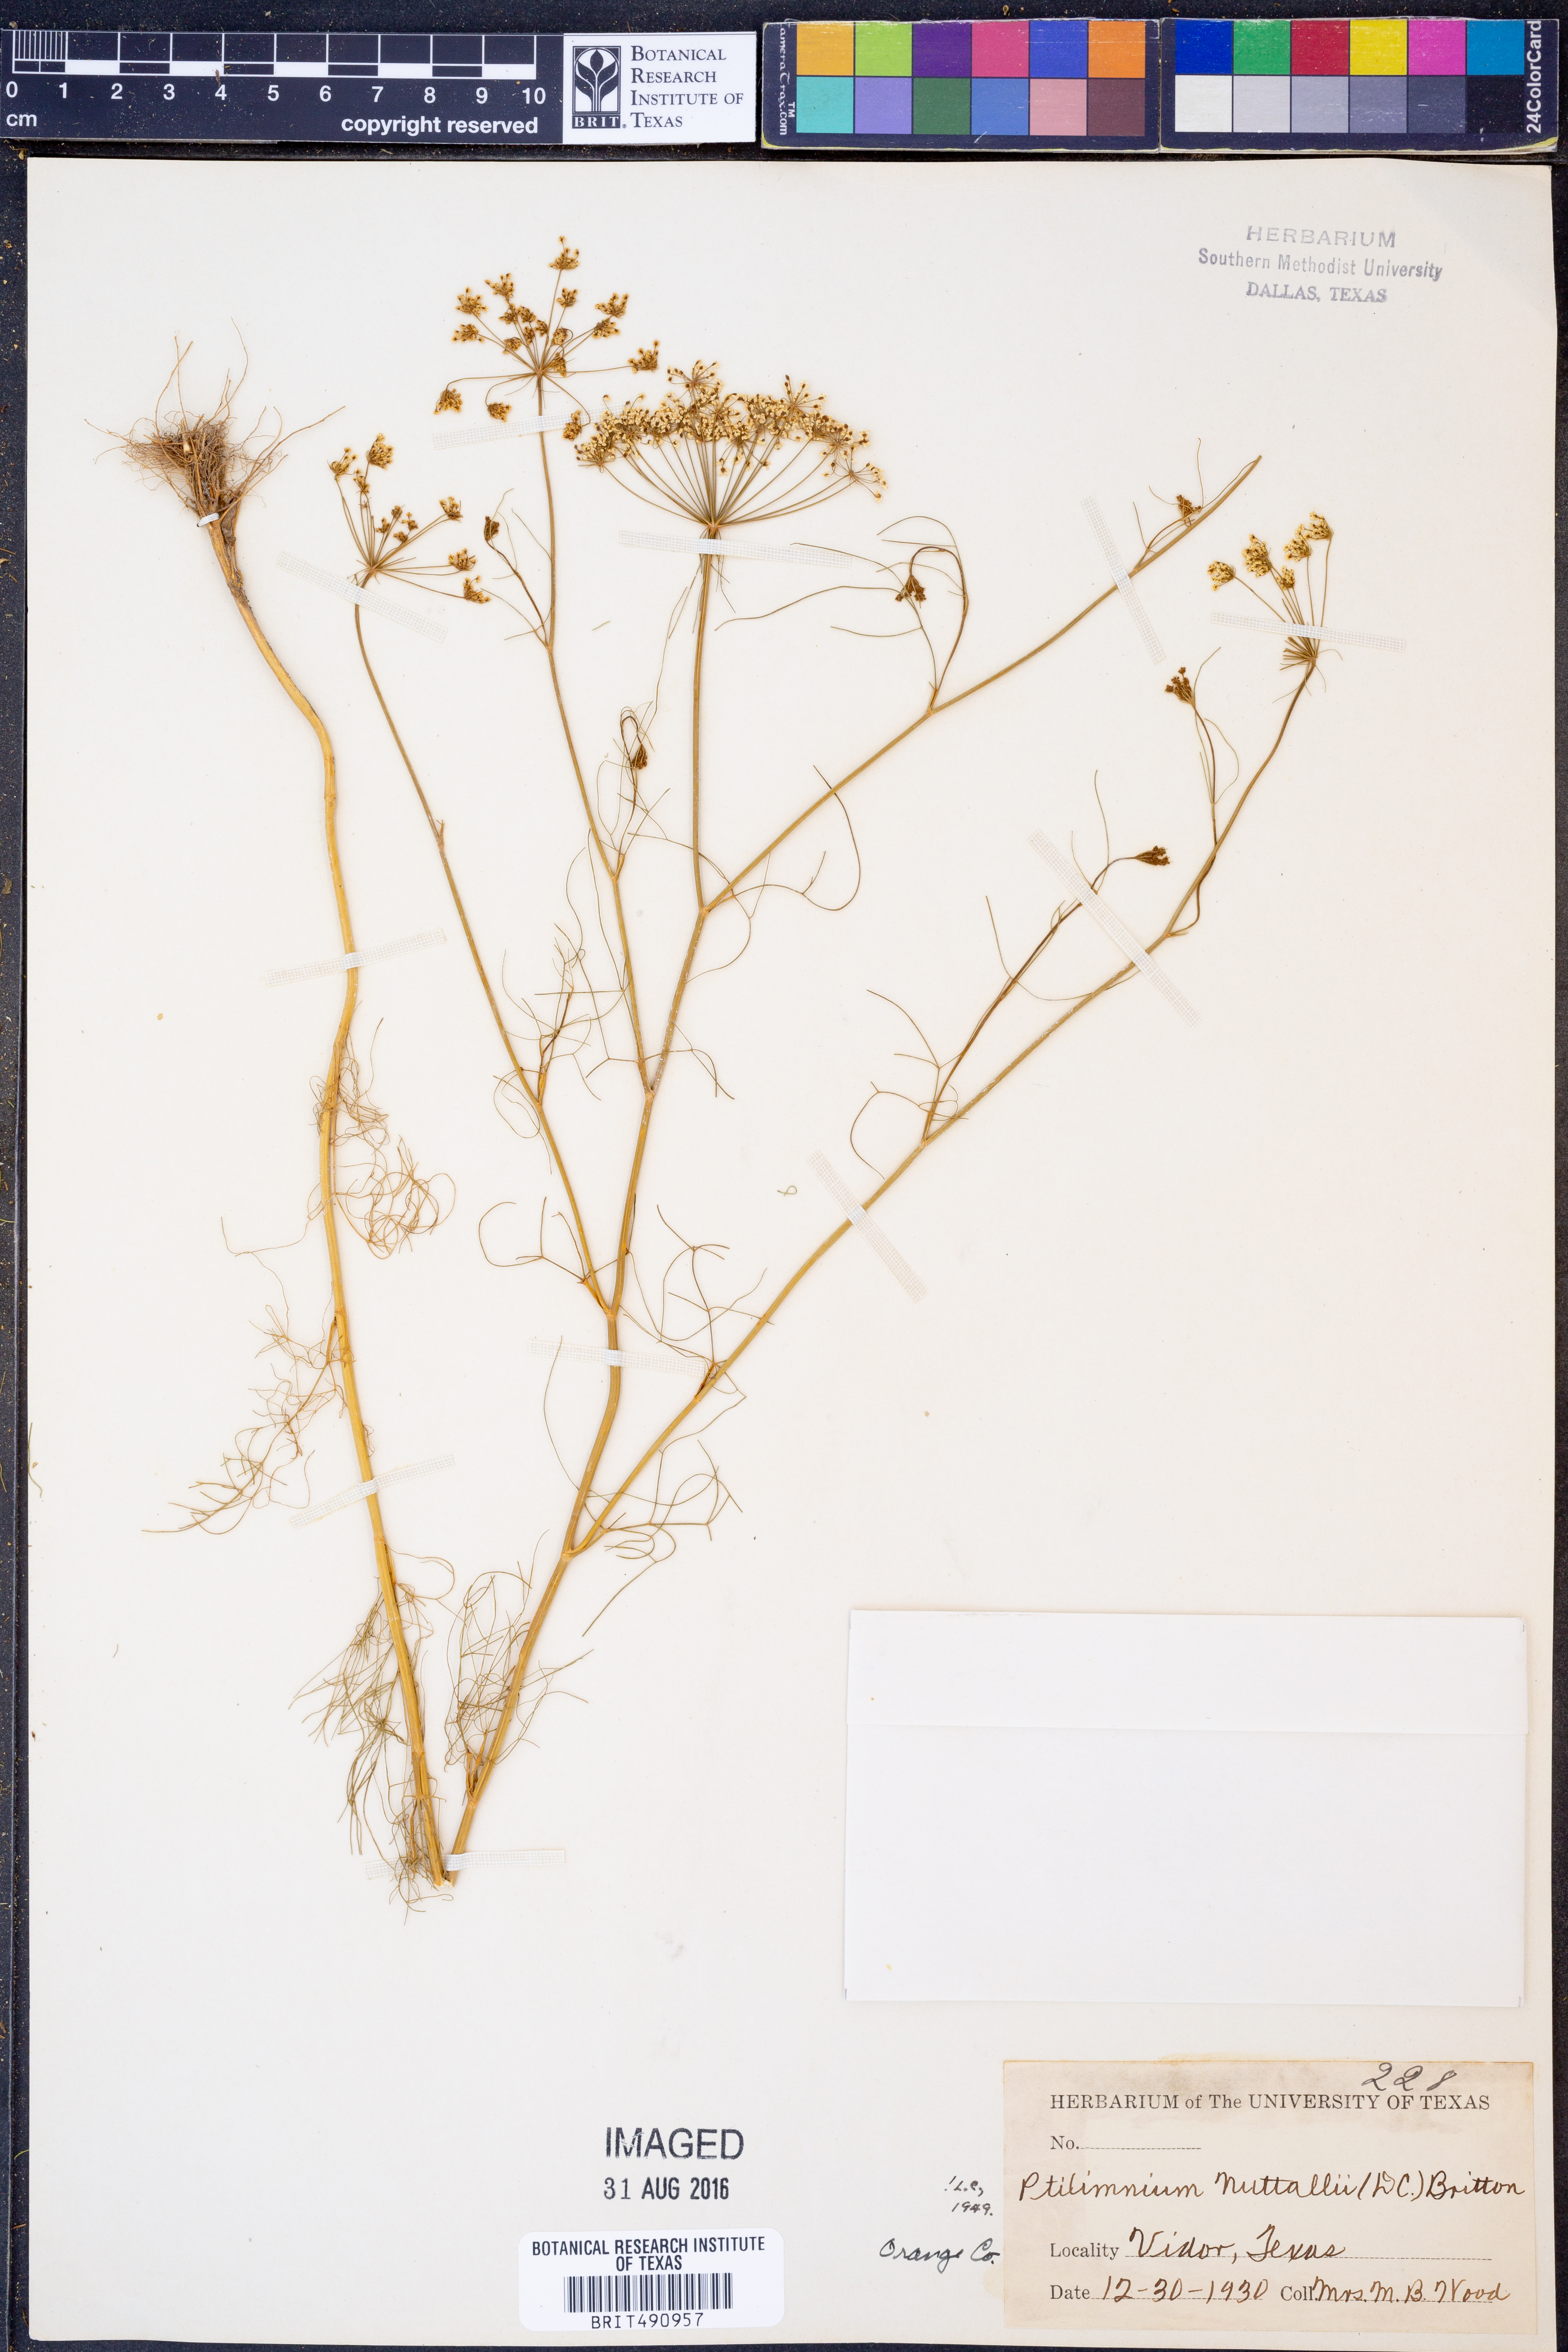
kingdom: Plantae
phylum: Tracheophyta
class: Magnoliopsida
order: Apiales
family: Apiaceae
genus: Ptilimnium
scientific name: Ptilimnium nuttallii
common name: Ozark bishop's-weed
